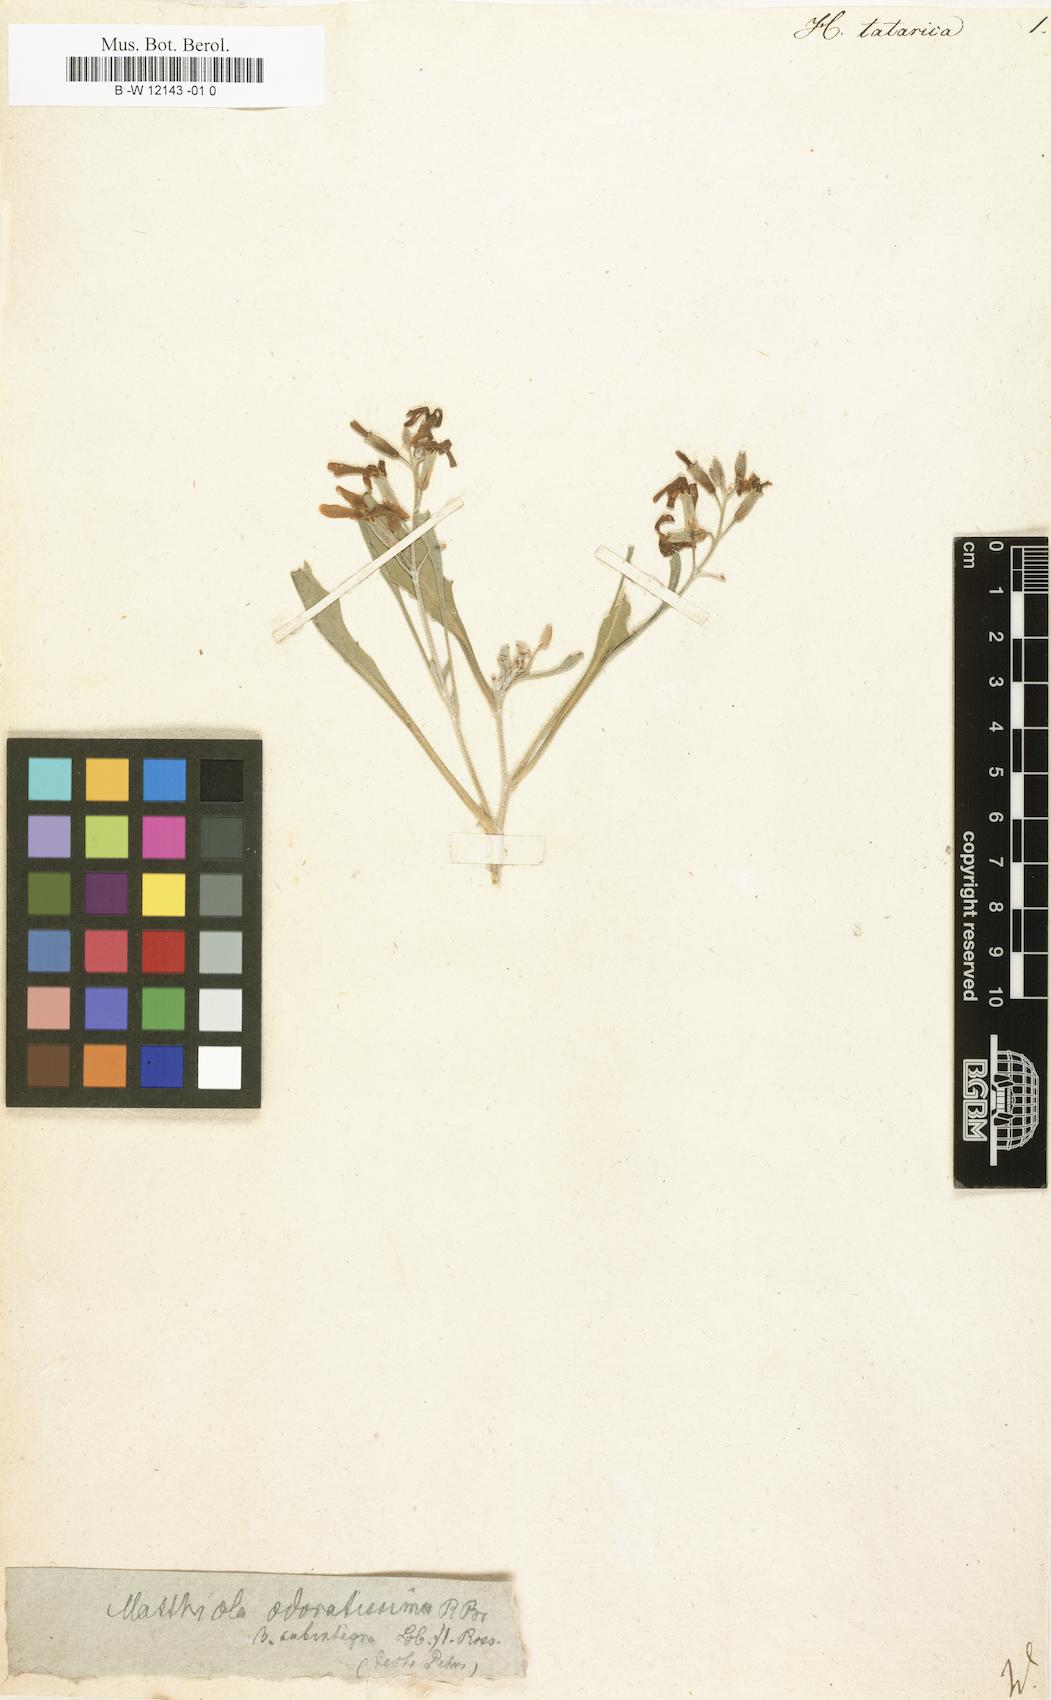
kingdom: Plantae
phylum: Tracheophyta
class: Magnoliopsida
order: Brassicales
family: Brassicaceae
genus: Matthiola
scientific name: Matthiola tatarica
